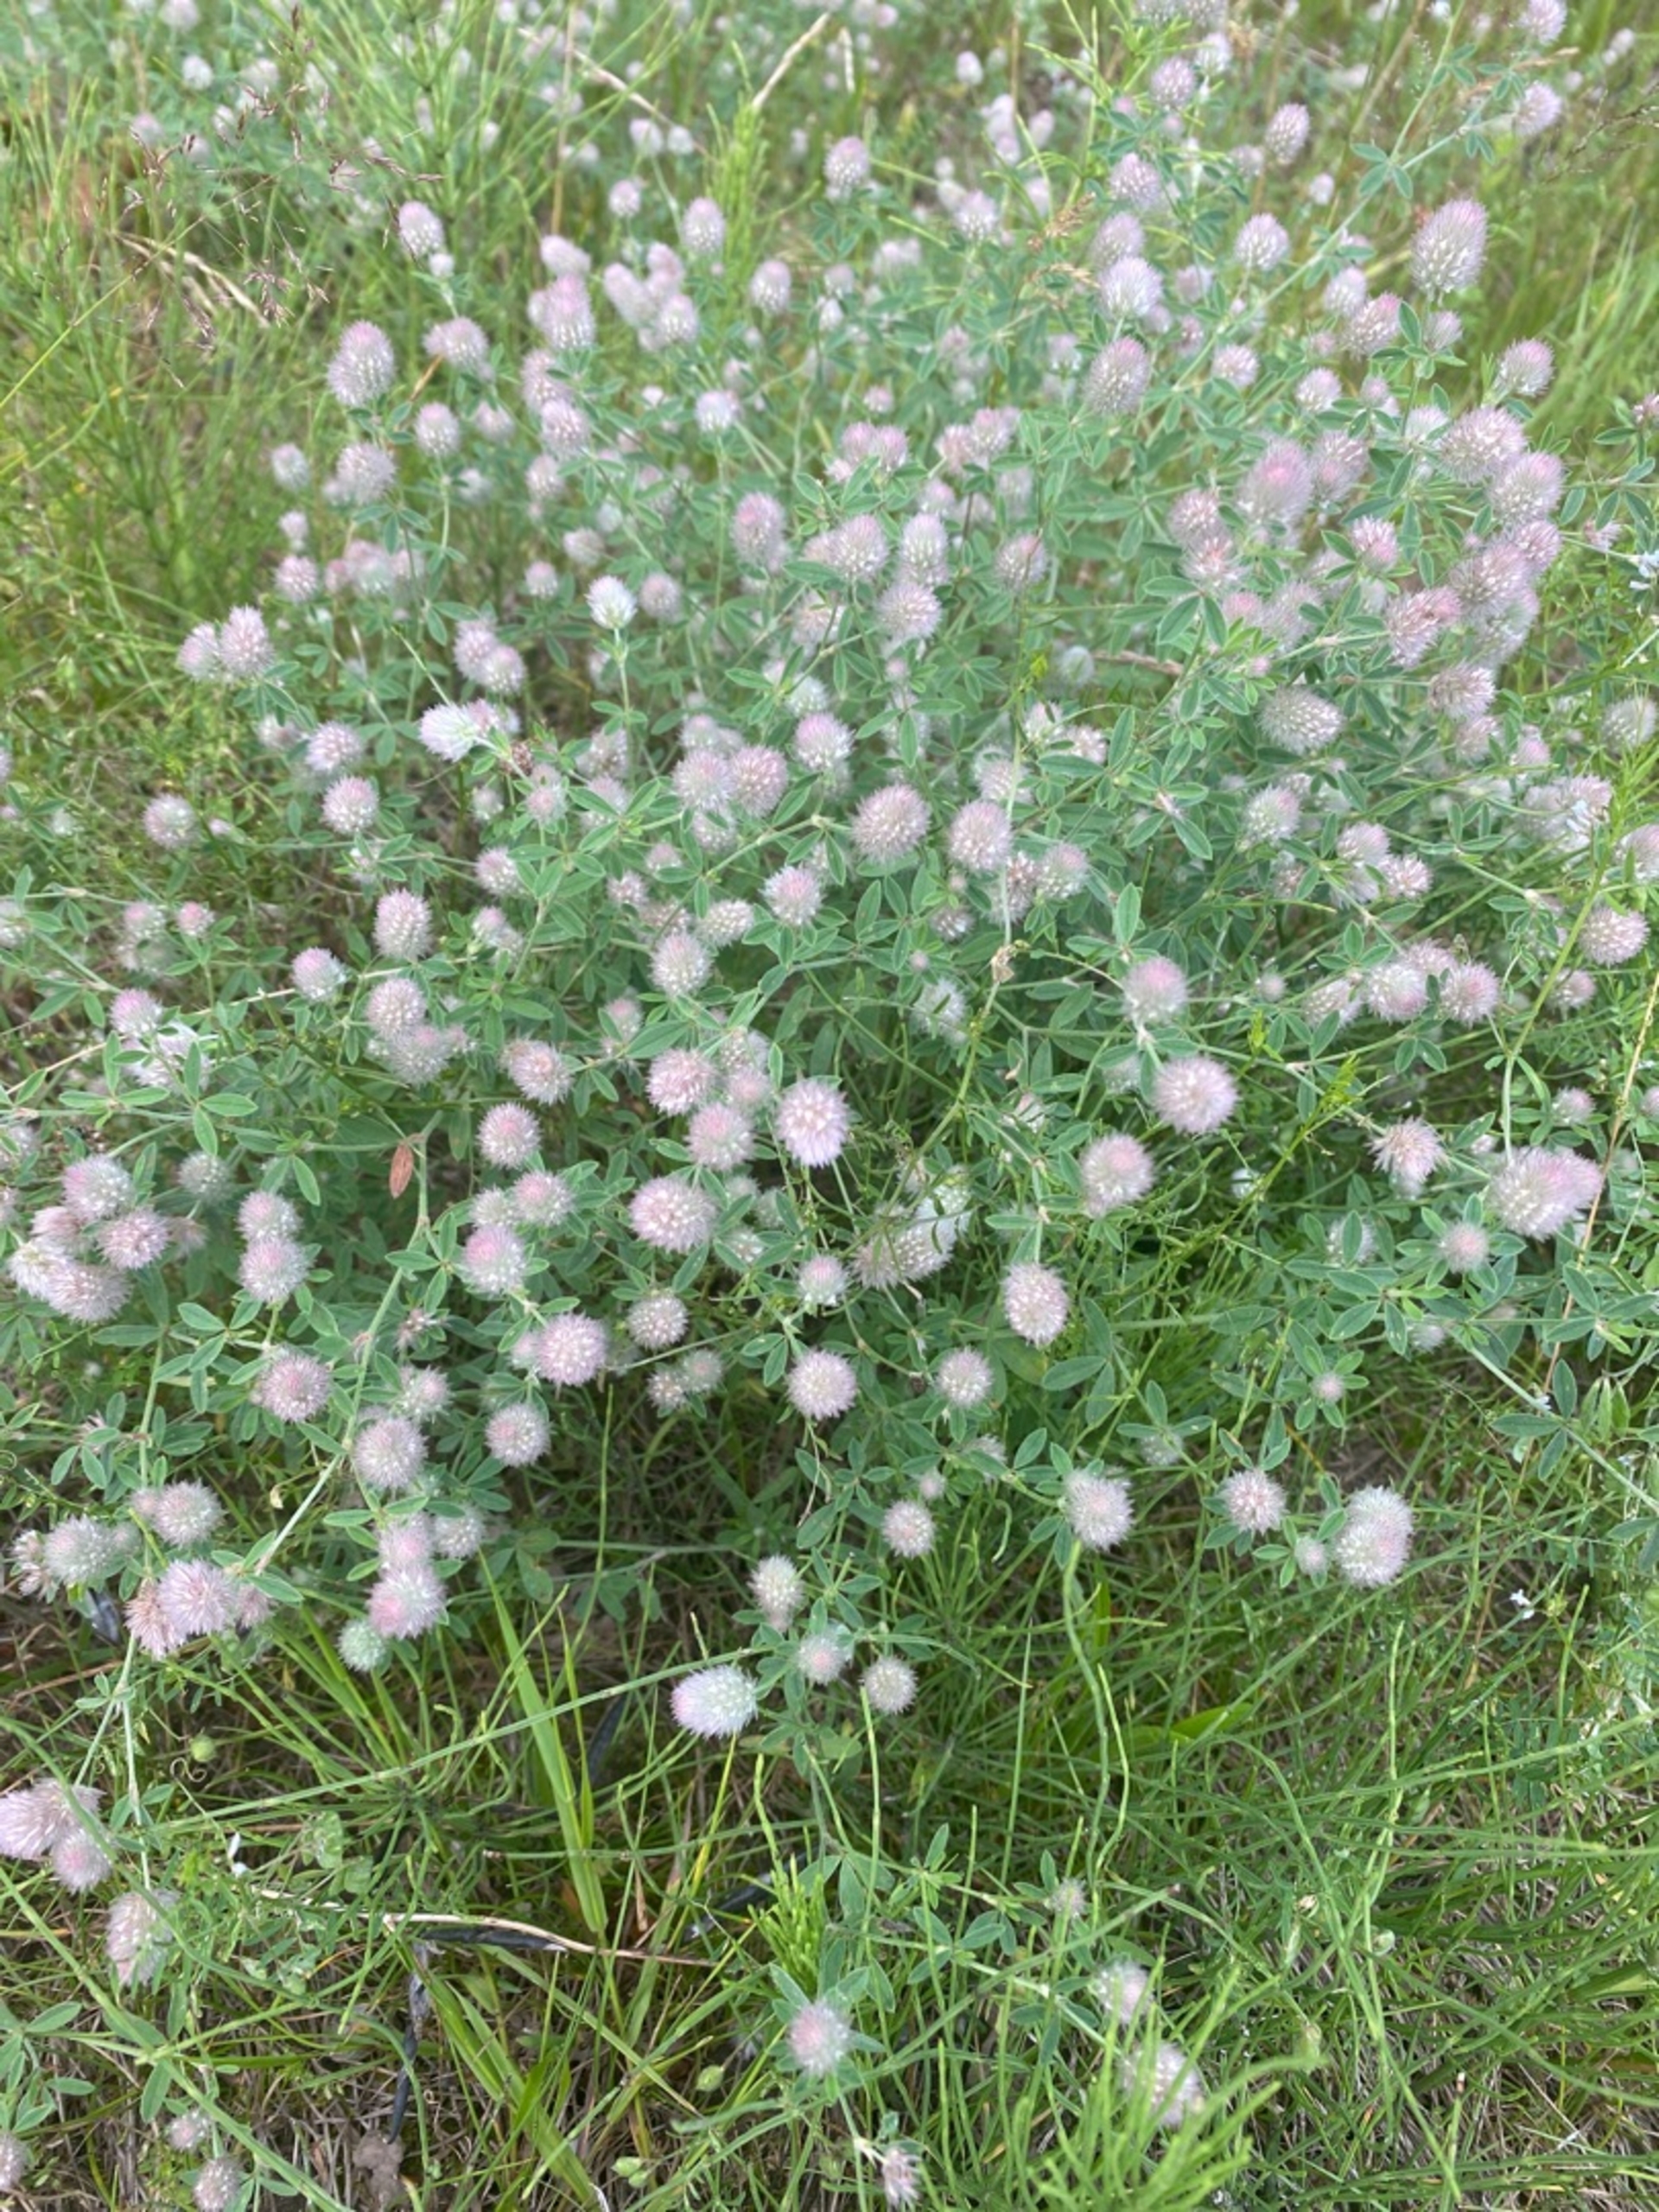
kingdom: Plantae
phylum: Tracheophyta
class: Magnoliopsida
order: Fabales
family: Fabaceae
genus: Trifolium
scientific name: Trifolium arvense
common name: Hare-kløver
